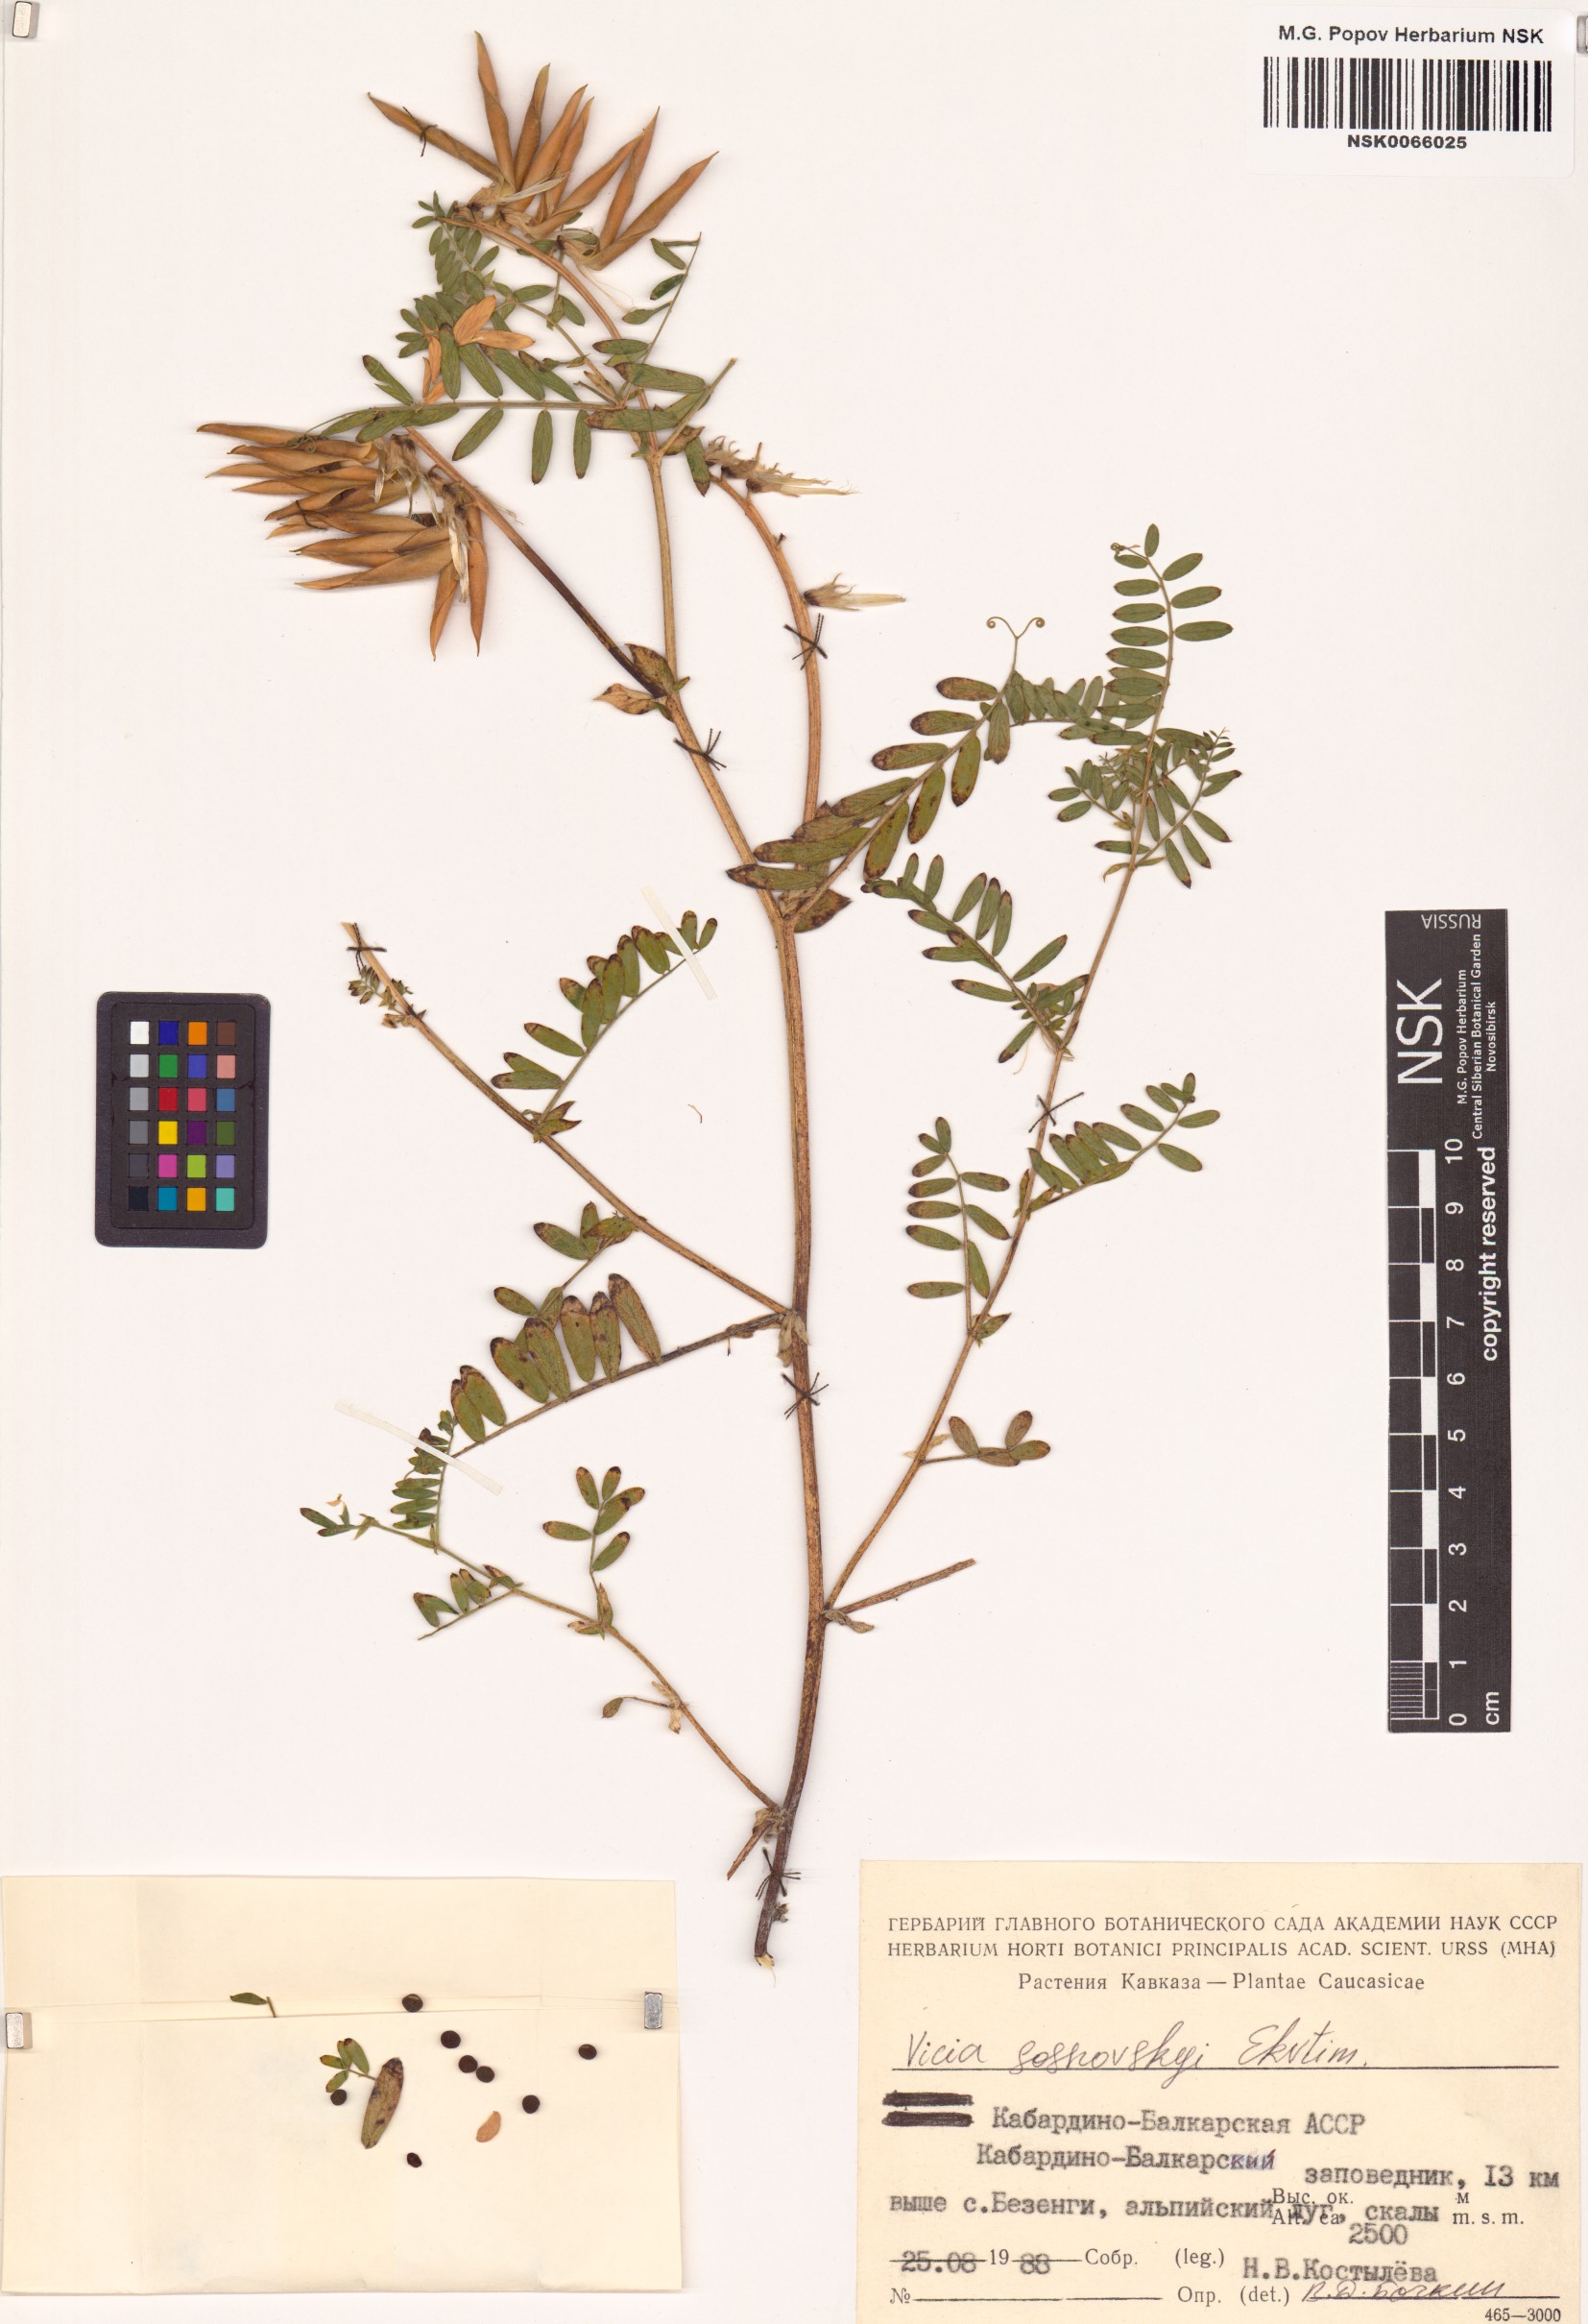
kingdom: Plantae
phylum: Tracheophyta
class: Magnoliopsida
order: Fabales
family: Fabaceae
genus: Vicia
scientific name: Vicia sosnowskyi
